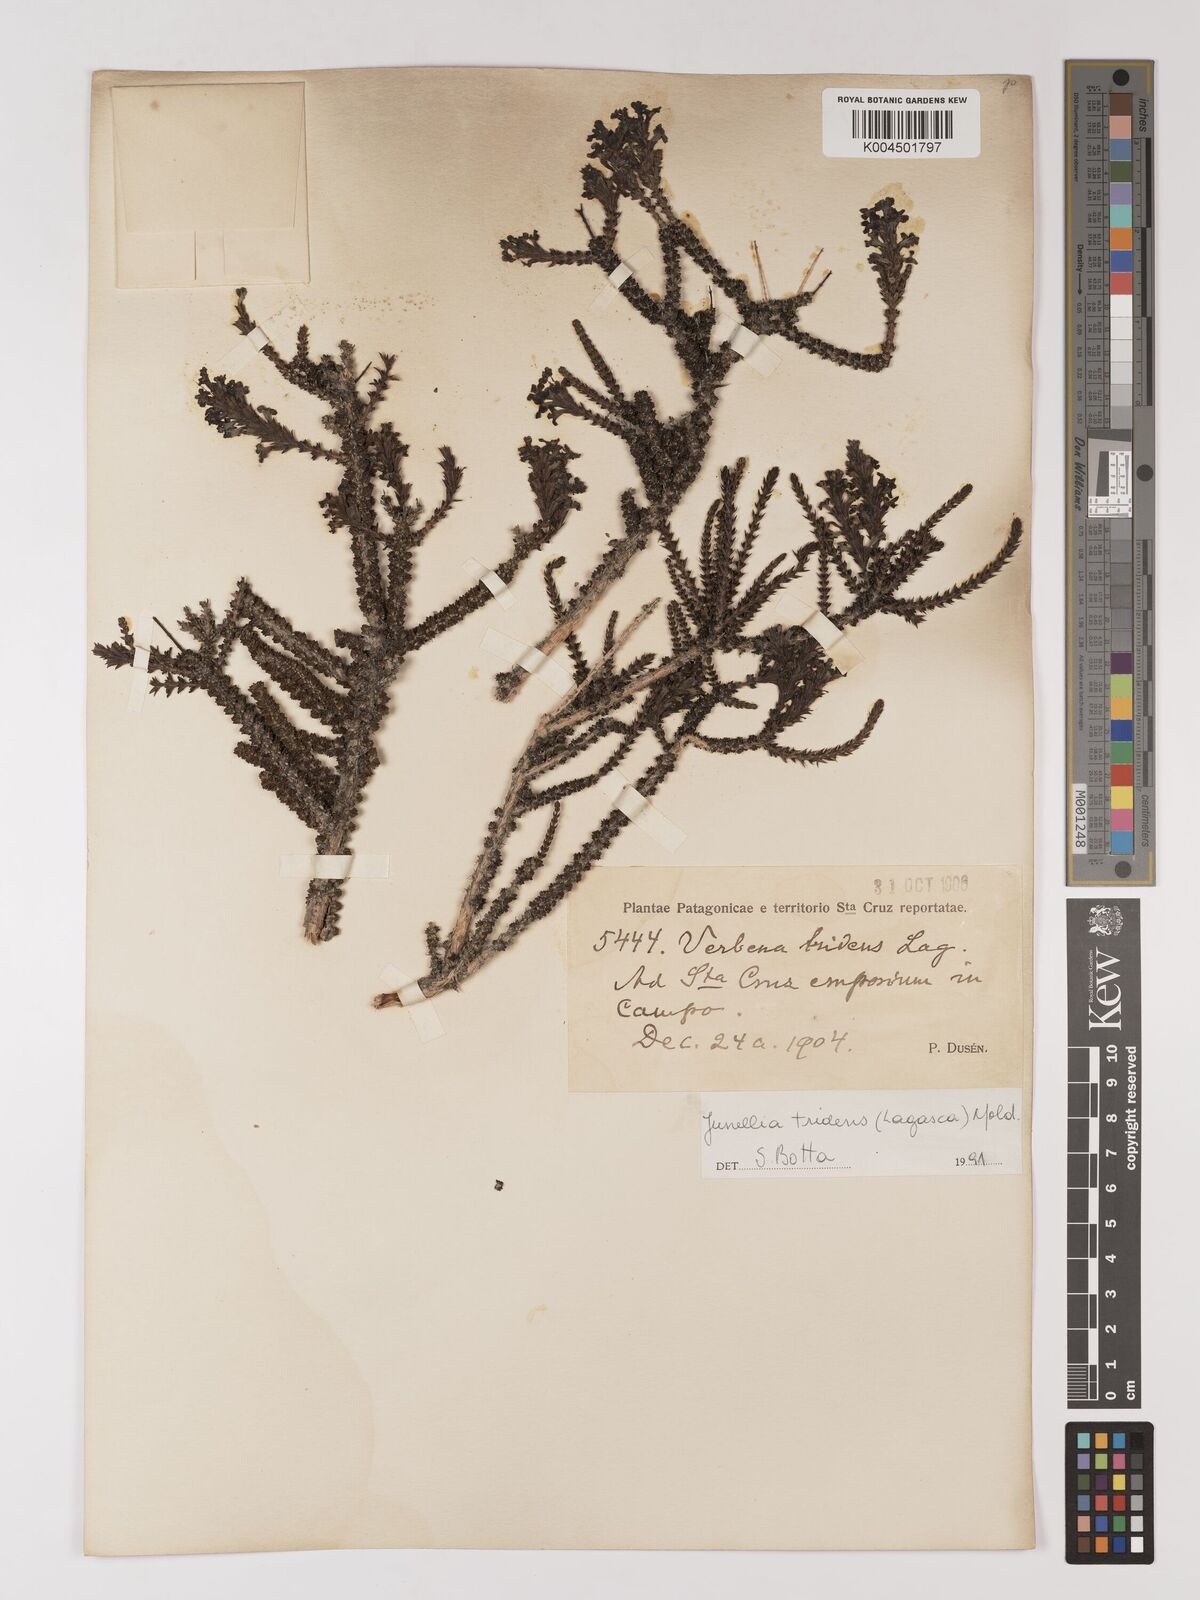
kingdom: Plantae
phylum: Tracheophyta
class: Magnoliopsida
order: Lamiales
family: Verbenaceae
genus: Mulguraea
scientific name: Mulguraea tridens
